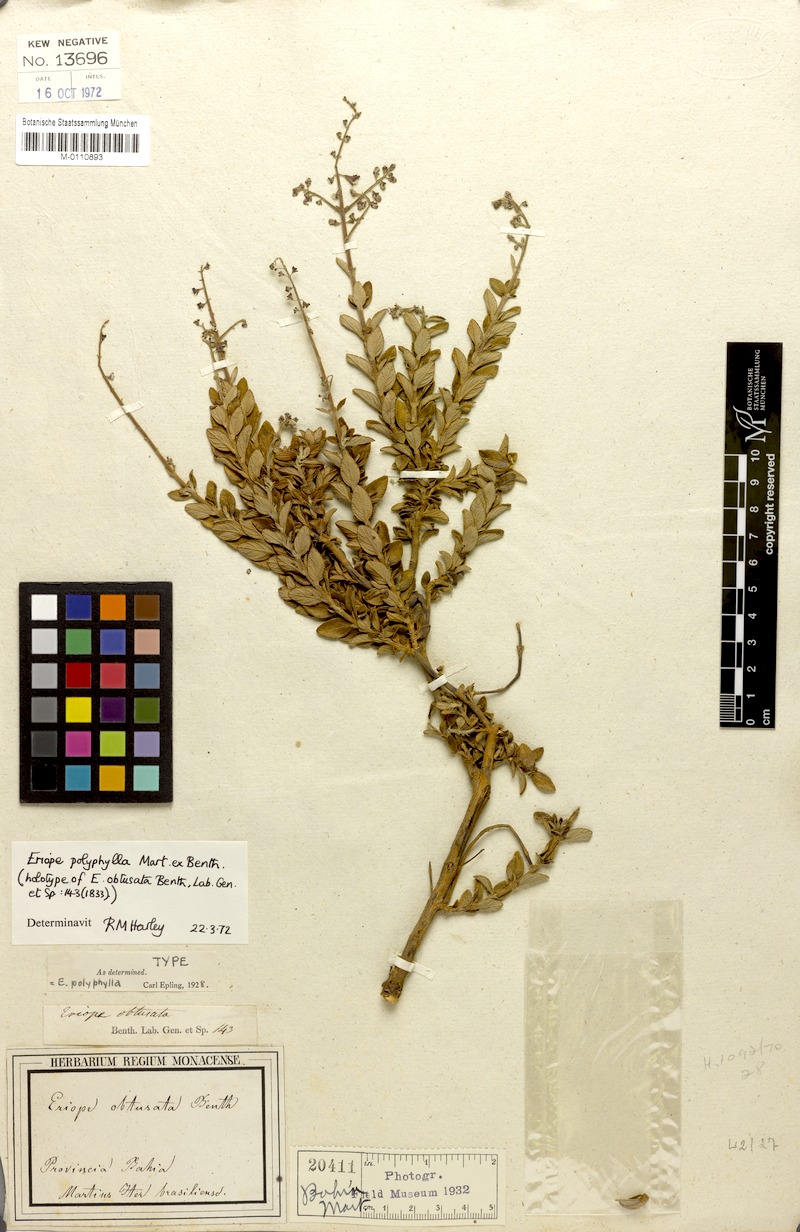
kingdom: Plantae
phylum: Tracheophyta
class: Magnoliopsida
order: Lamiales
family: Lamiaceae
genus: Eriope
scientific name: Eriope polyphylla
